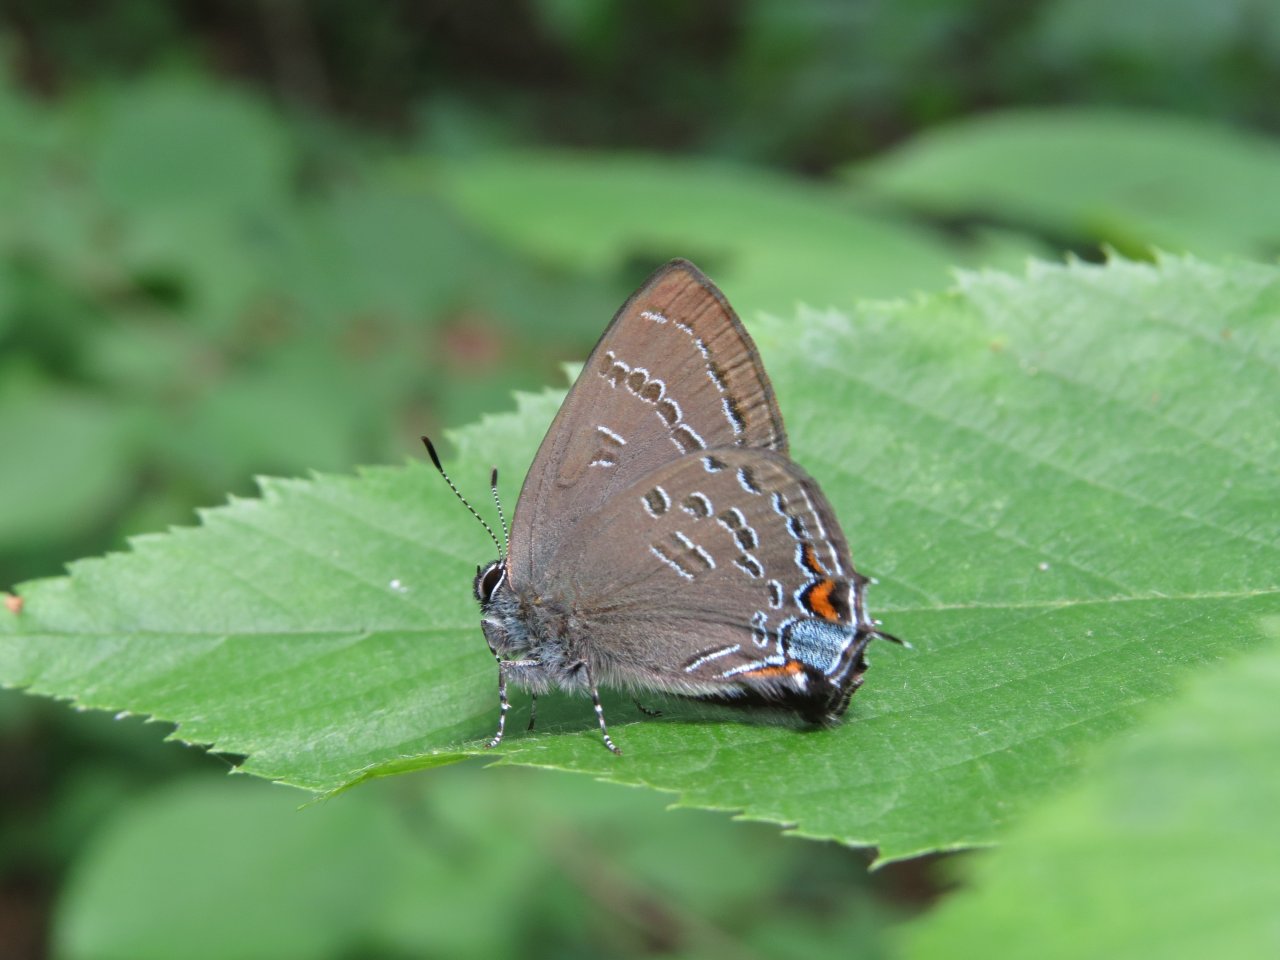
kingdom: Animalia
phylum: Arthropoda
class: Insecta
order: Lepidoptera
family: Lycaenidae
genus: Satyrium
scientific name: Satyrium calanus
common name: Banded Hairstreak
